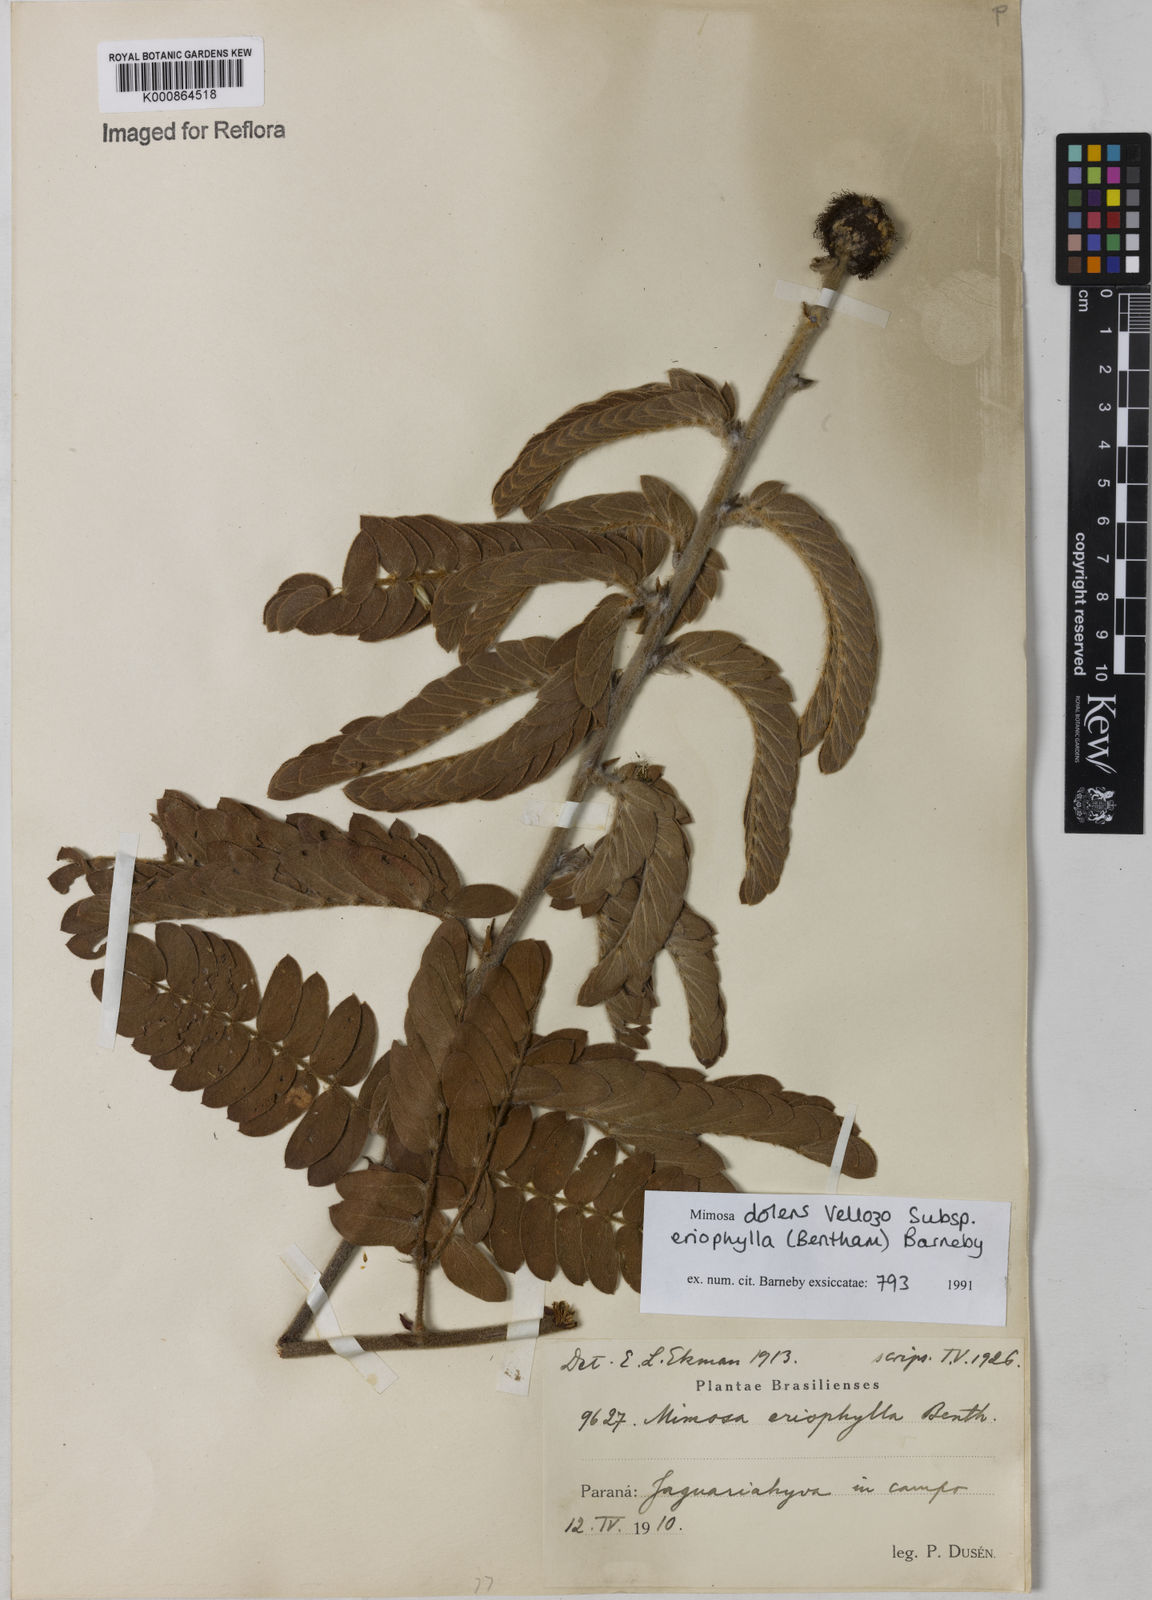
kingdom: Plantae
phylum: Tracheophyta
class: Magnoliopsida
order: Fabales
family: Fabaceae
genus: Mimosa
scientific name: Mimosa dolens
